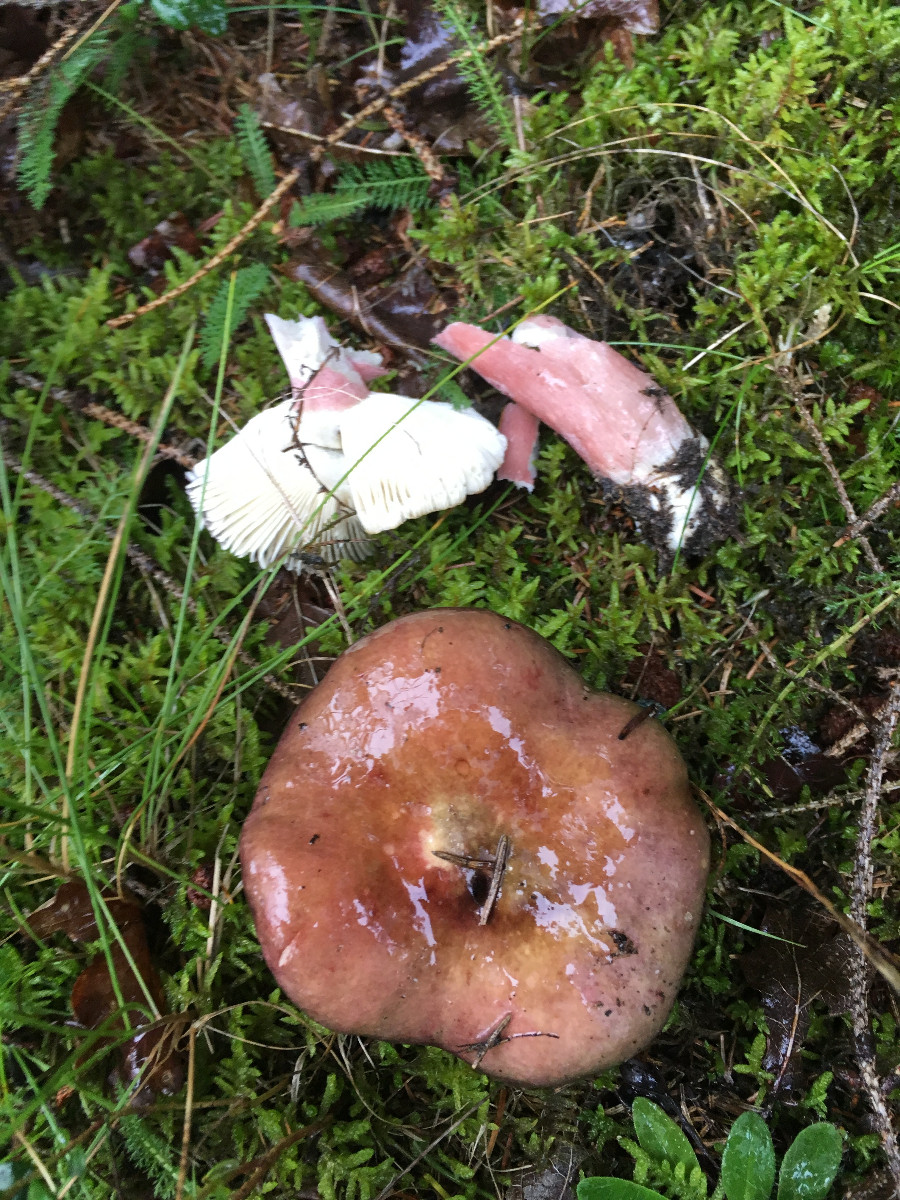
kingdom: Fungi
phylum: Basidiomycota
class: Agaricomycetes
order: Russulales
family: Russulaceae
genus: Russula
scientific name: Russula queletii
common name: Quélets skørhat
